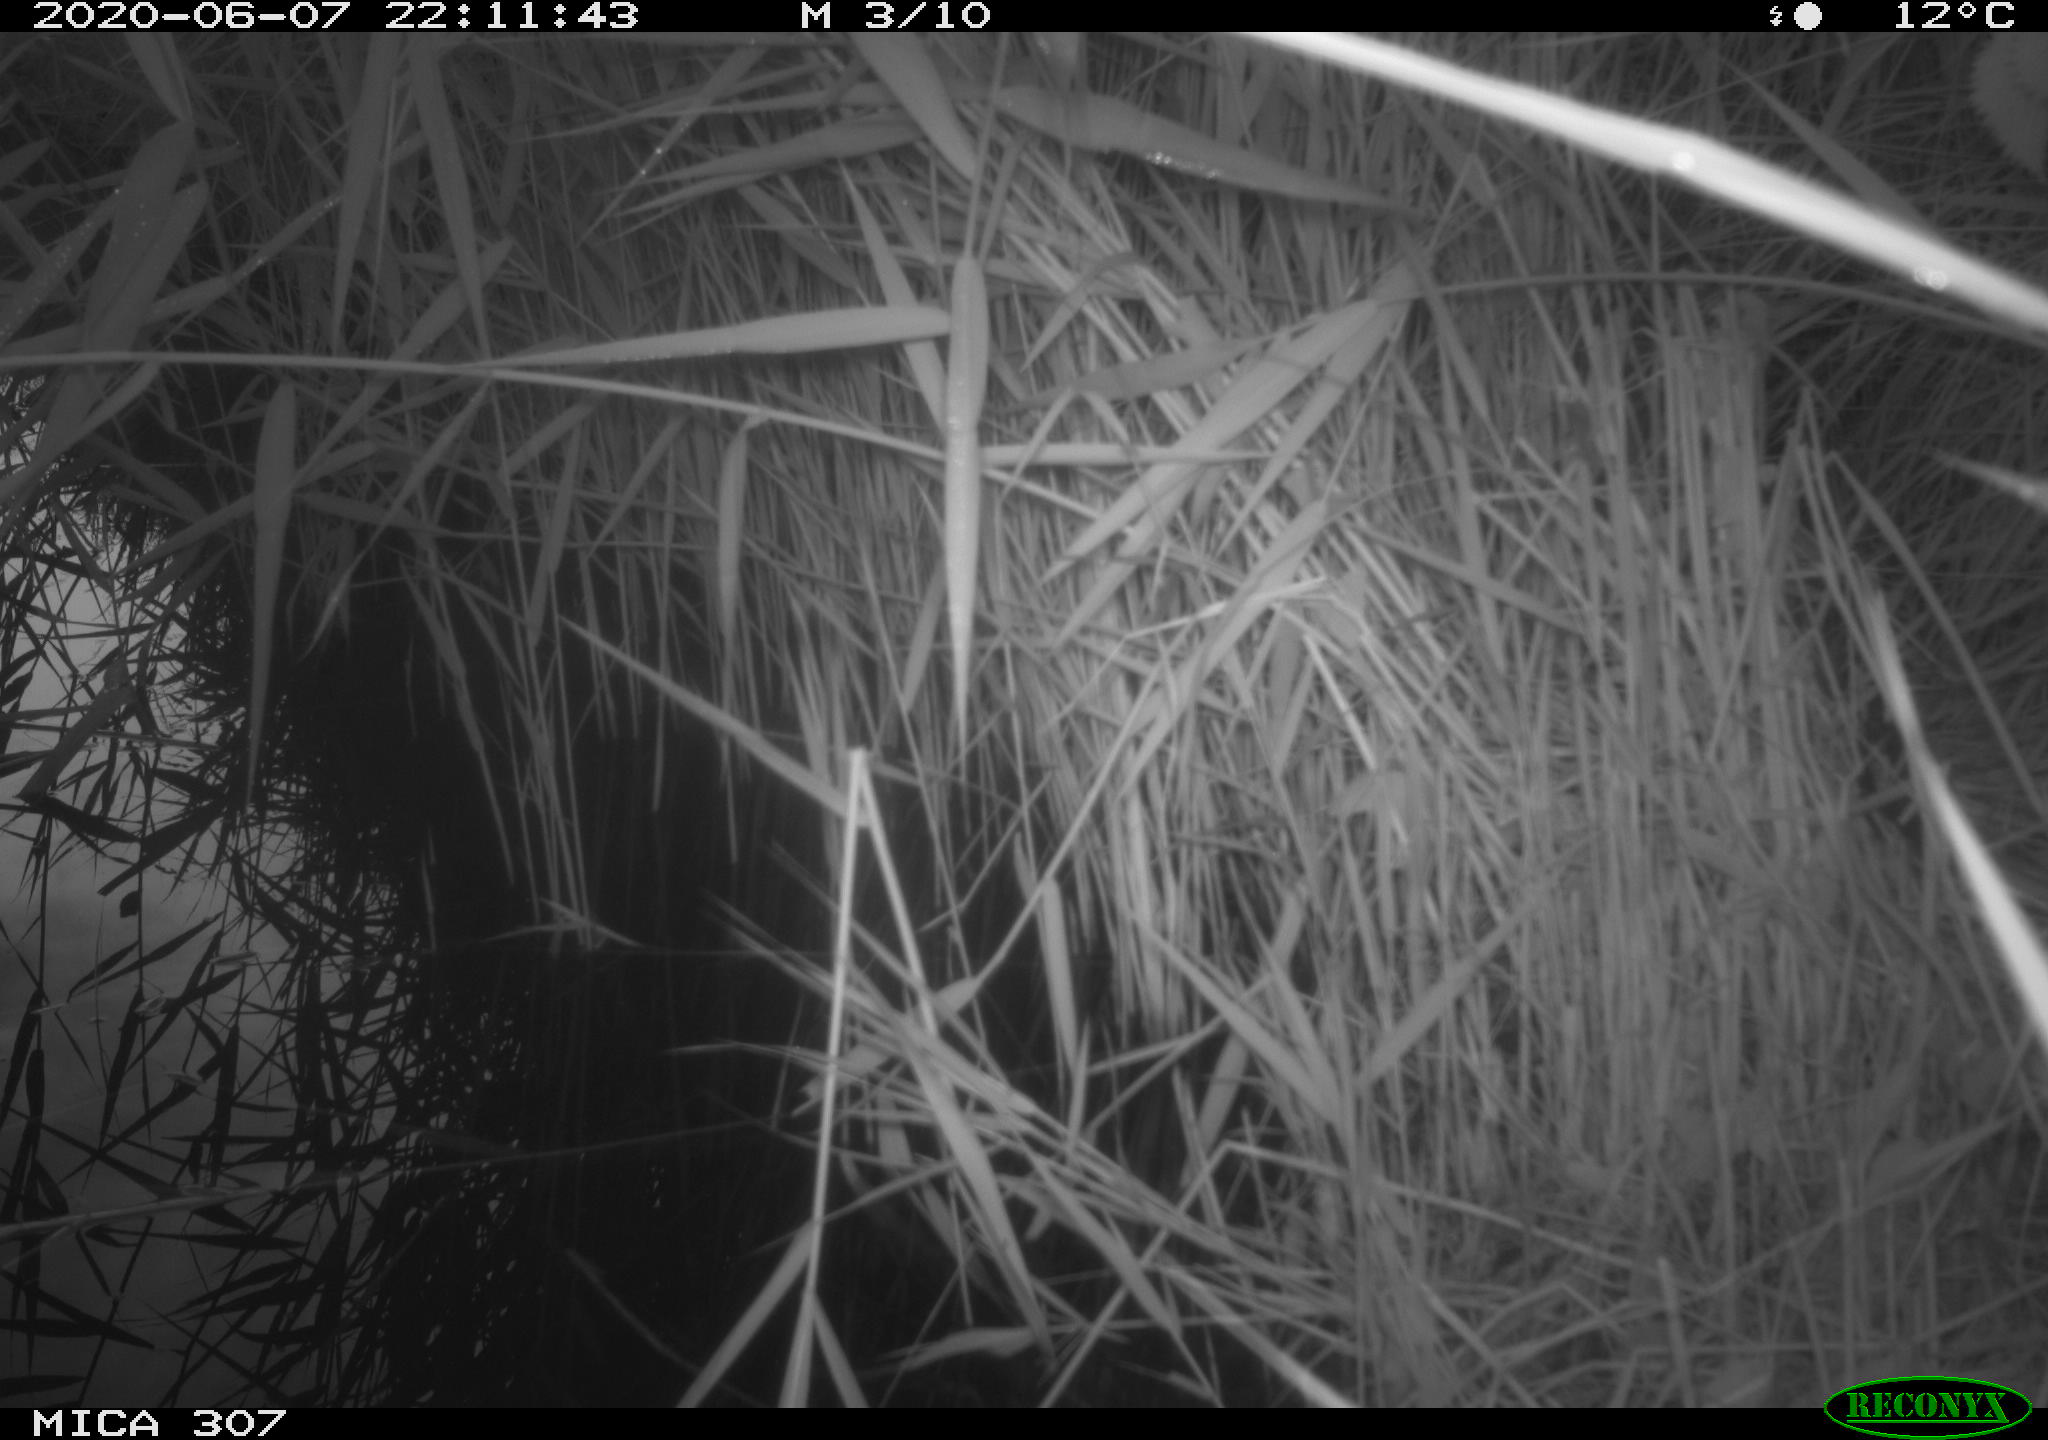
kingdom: Animalia
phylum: Chordata
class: Mammalia
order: Rodentia
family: Muridae
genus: Rattus
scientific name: Rattus norvegicus
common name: Brown rat
